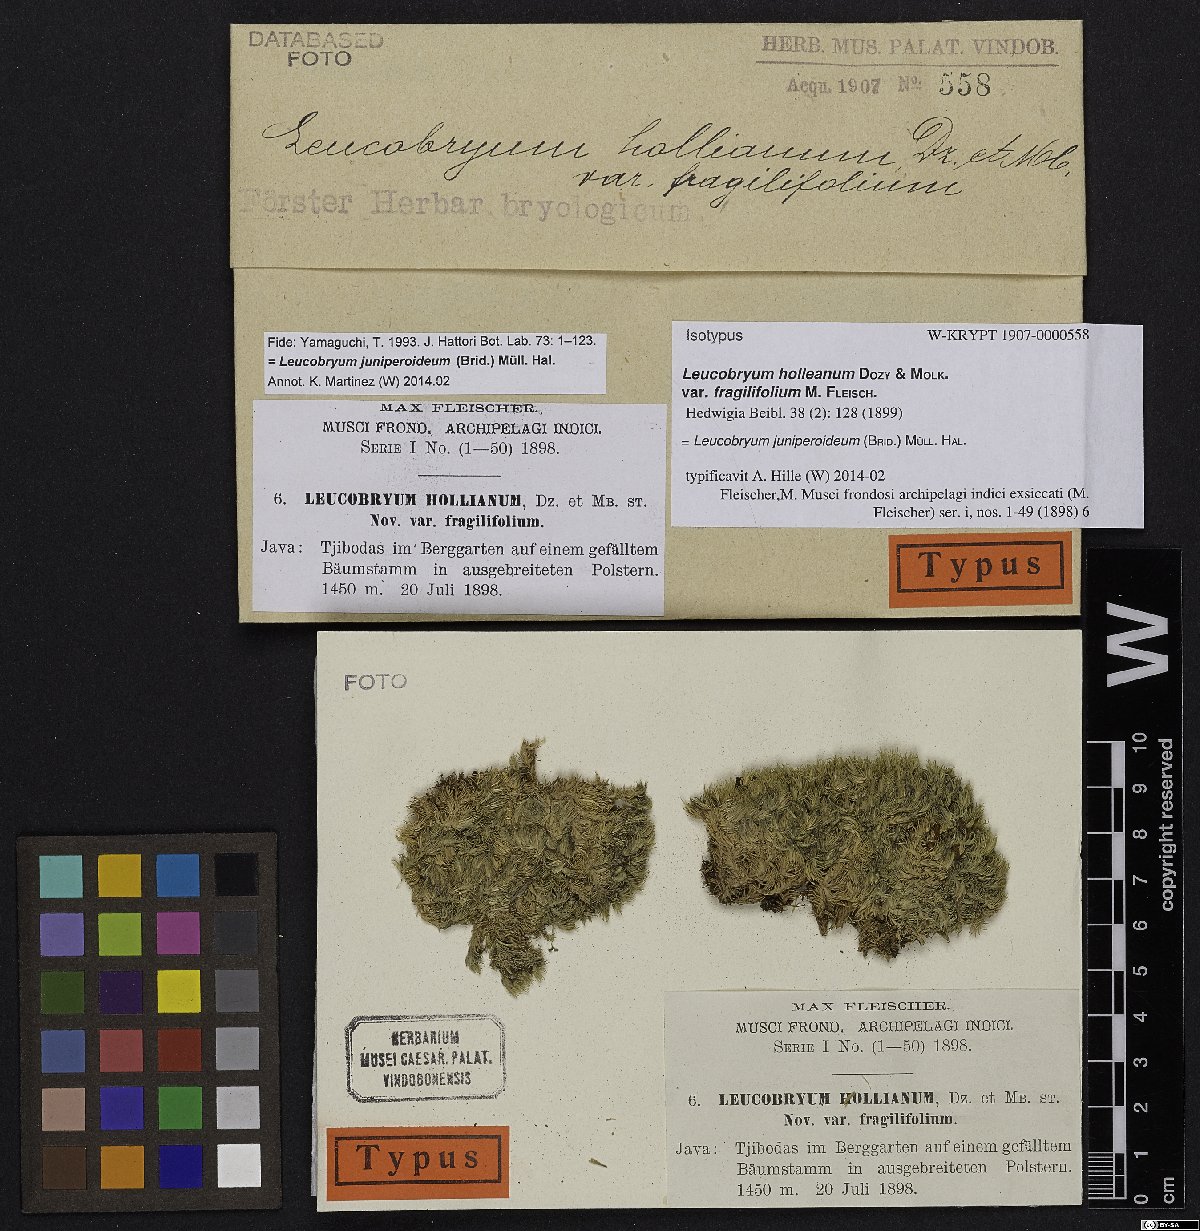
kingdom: Plantae
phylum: Bryophyta
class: Bryopsida
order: Dicranales
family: Leucobryaceae
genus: Leucobryum
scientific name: Leucobryum juniperoideum
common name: Smaller white-moss
